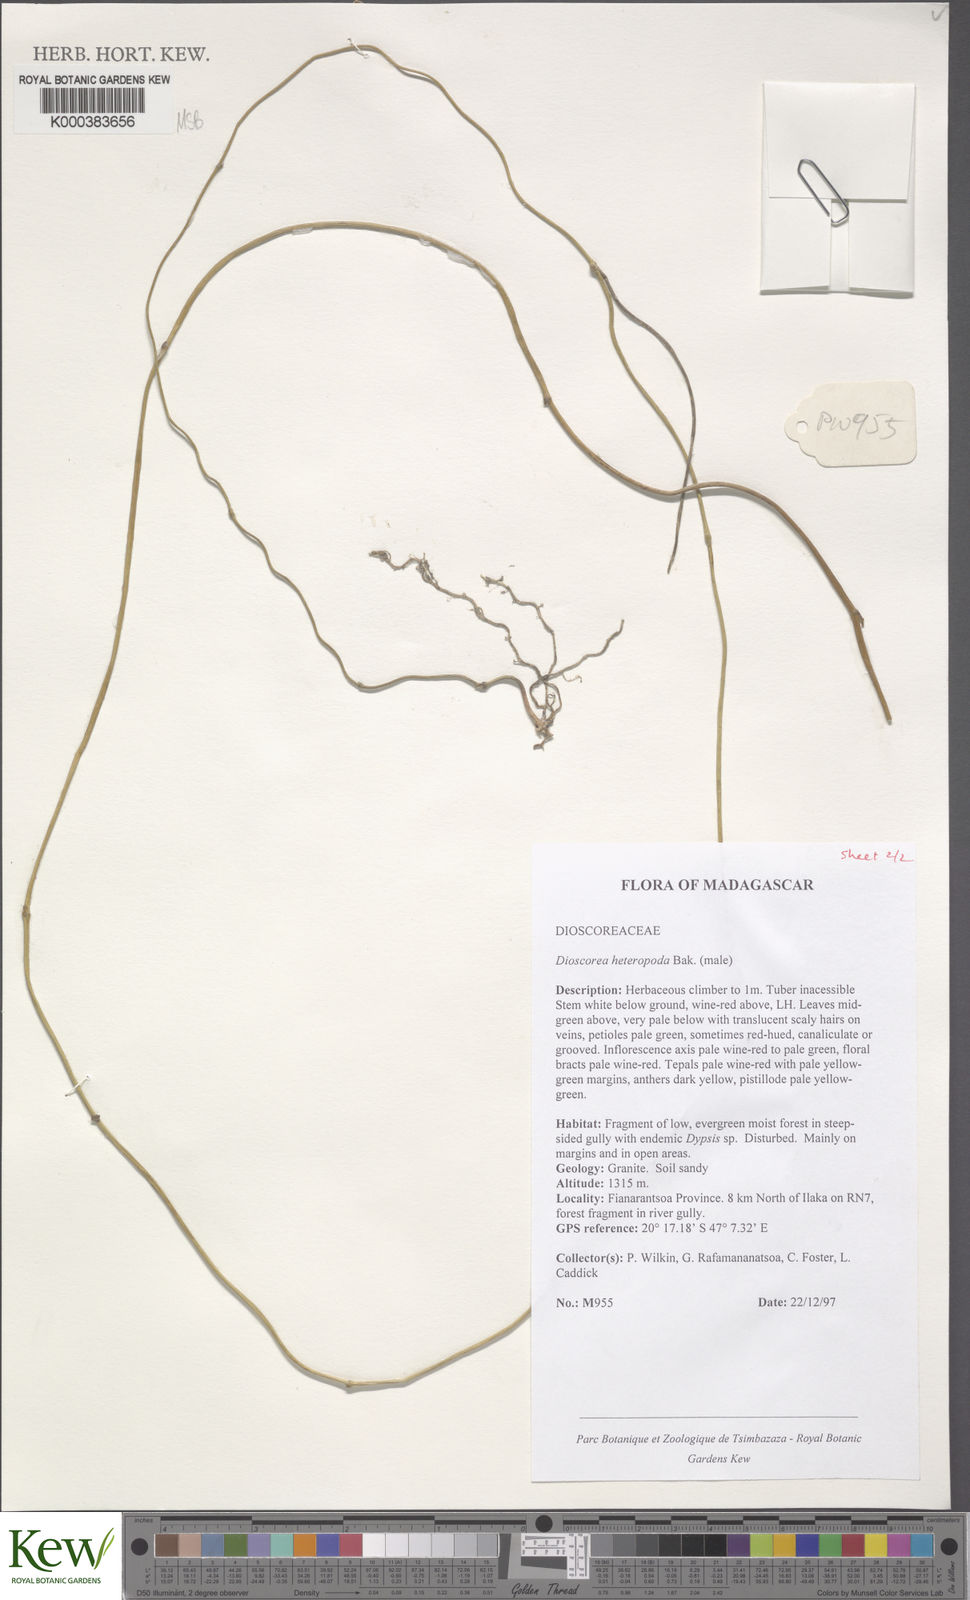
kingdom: Plantae
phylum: Tracheophyta
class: Liliopsida
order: Dioscoreales
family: Dioscoreaceae
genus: Dioscorea
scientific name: Dioscorea heteropoda
